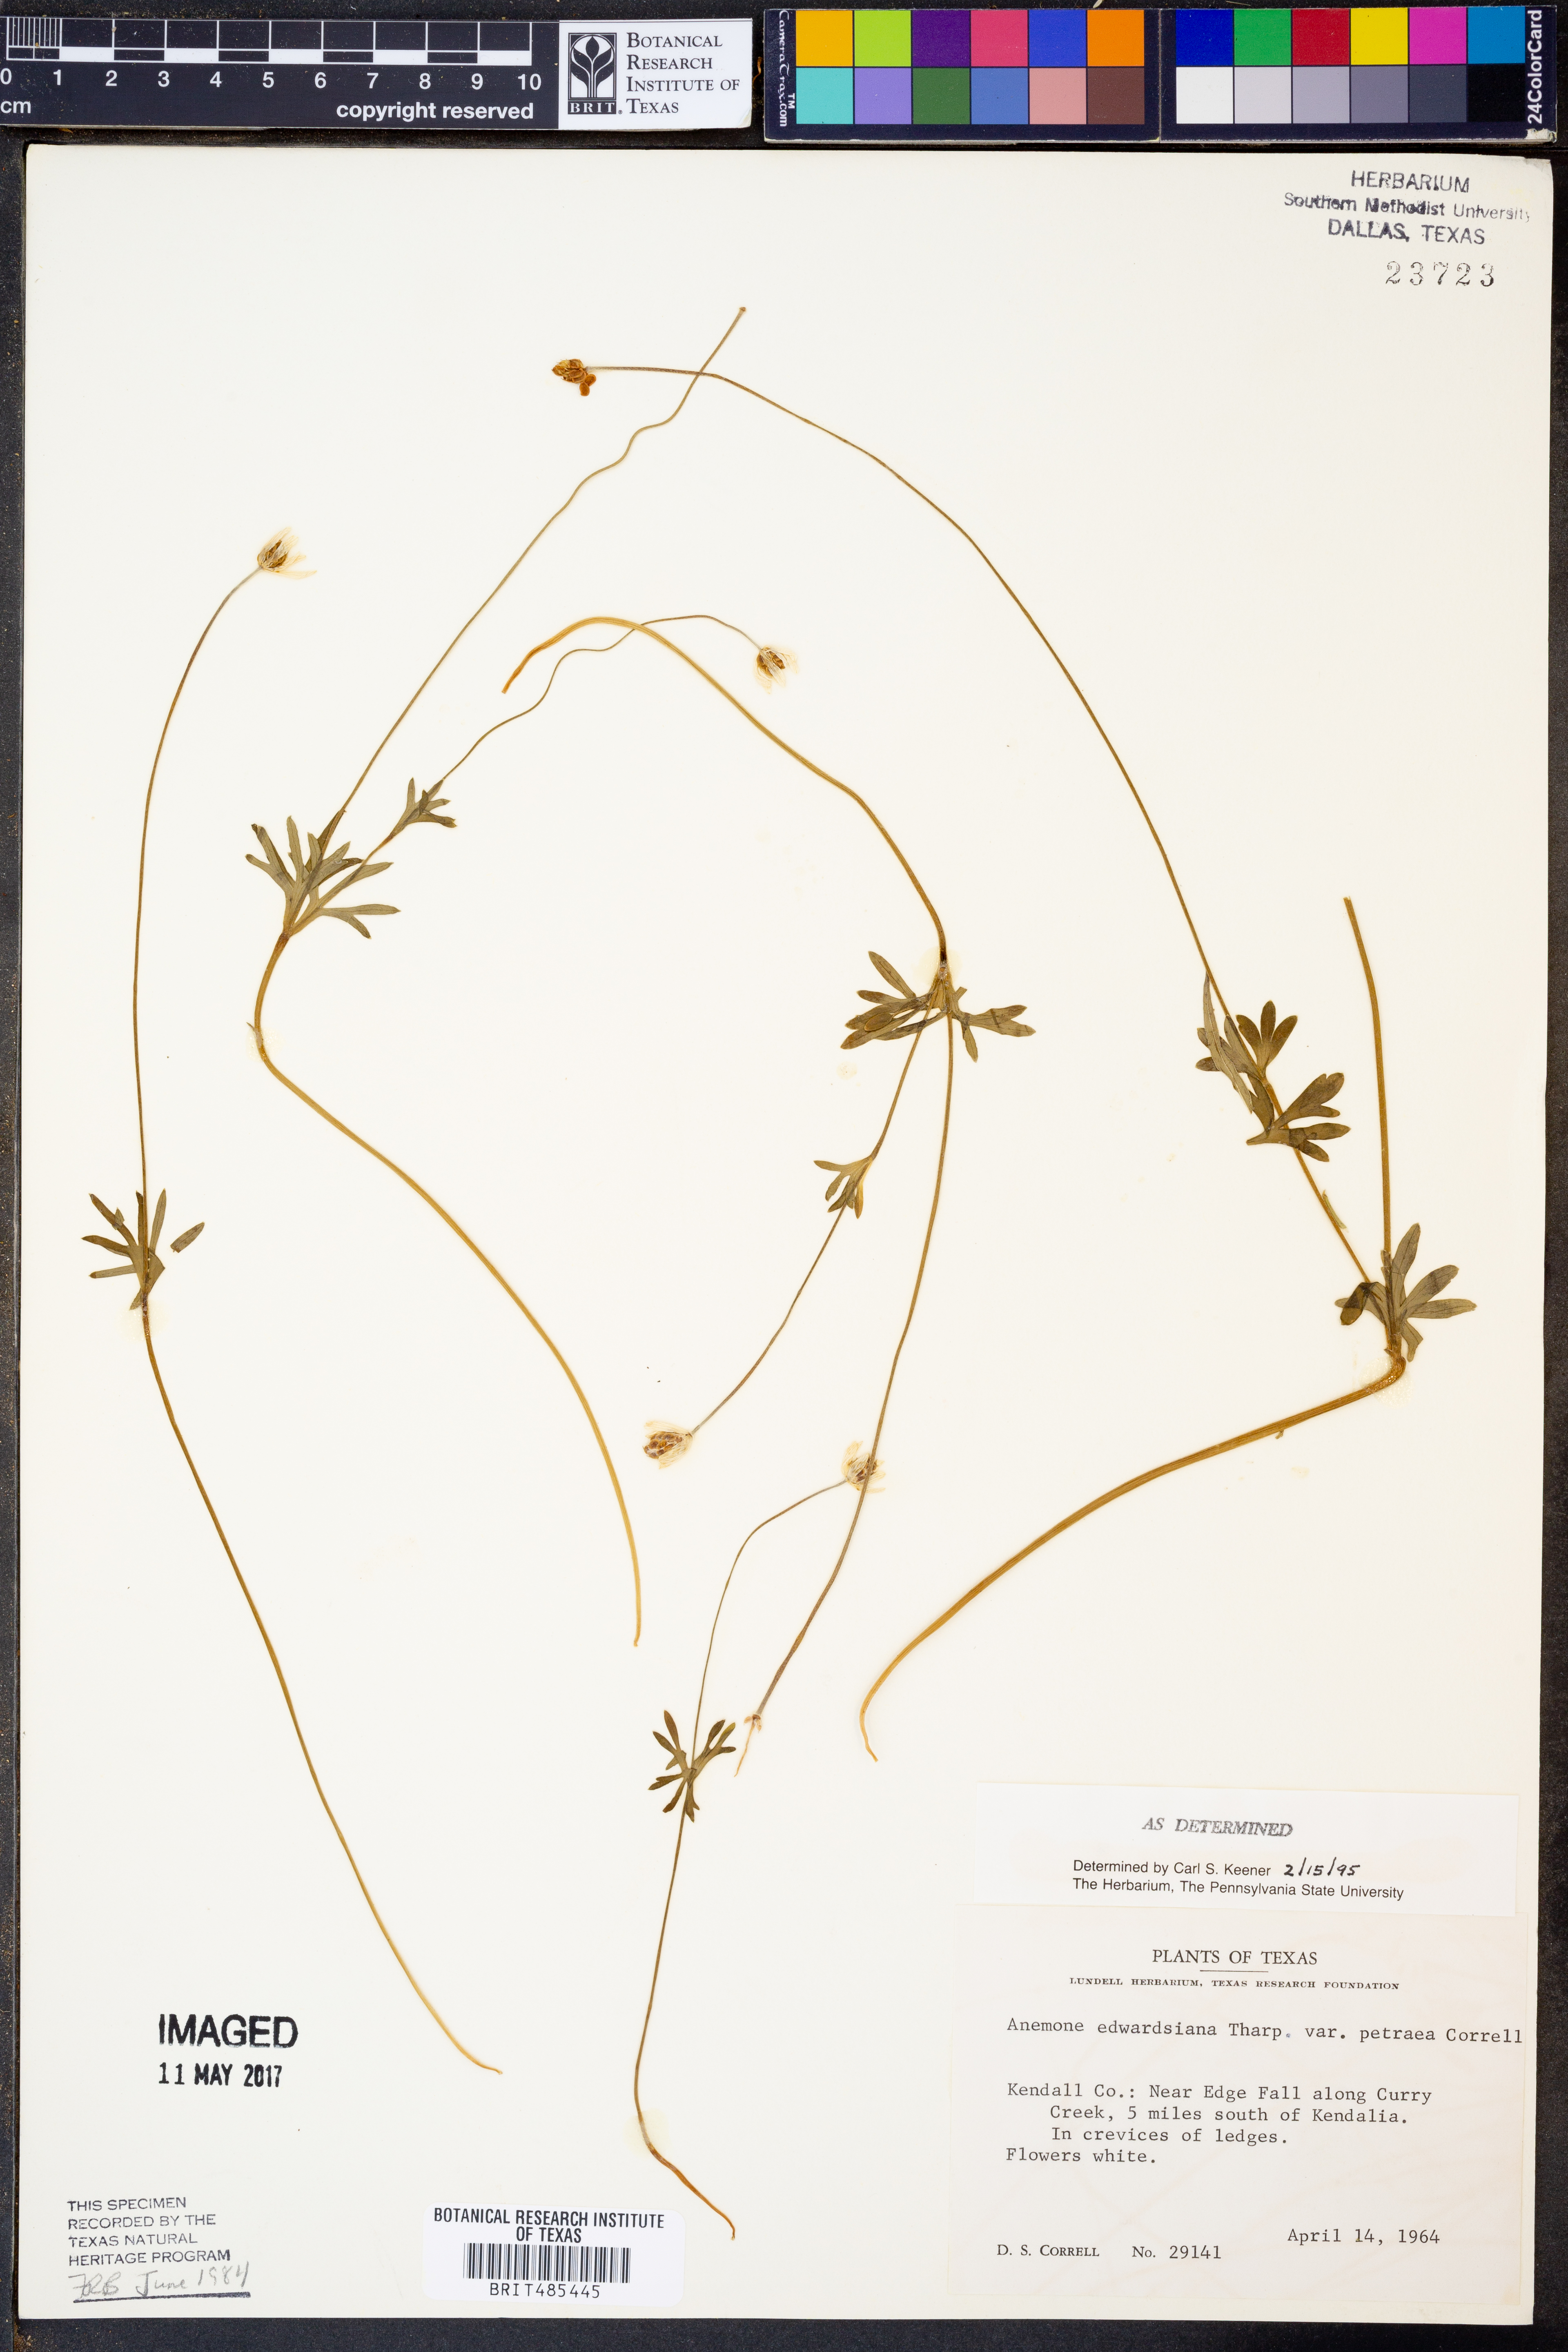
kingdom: Plantae
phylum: Tracheophyta
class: Magnoliopsida
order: Ranunculales
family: Ranunculaceae
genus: Anemone
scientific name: Anemone edwardsiana
